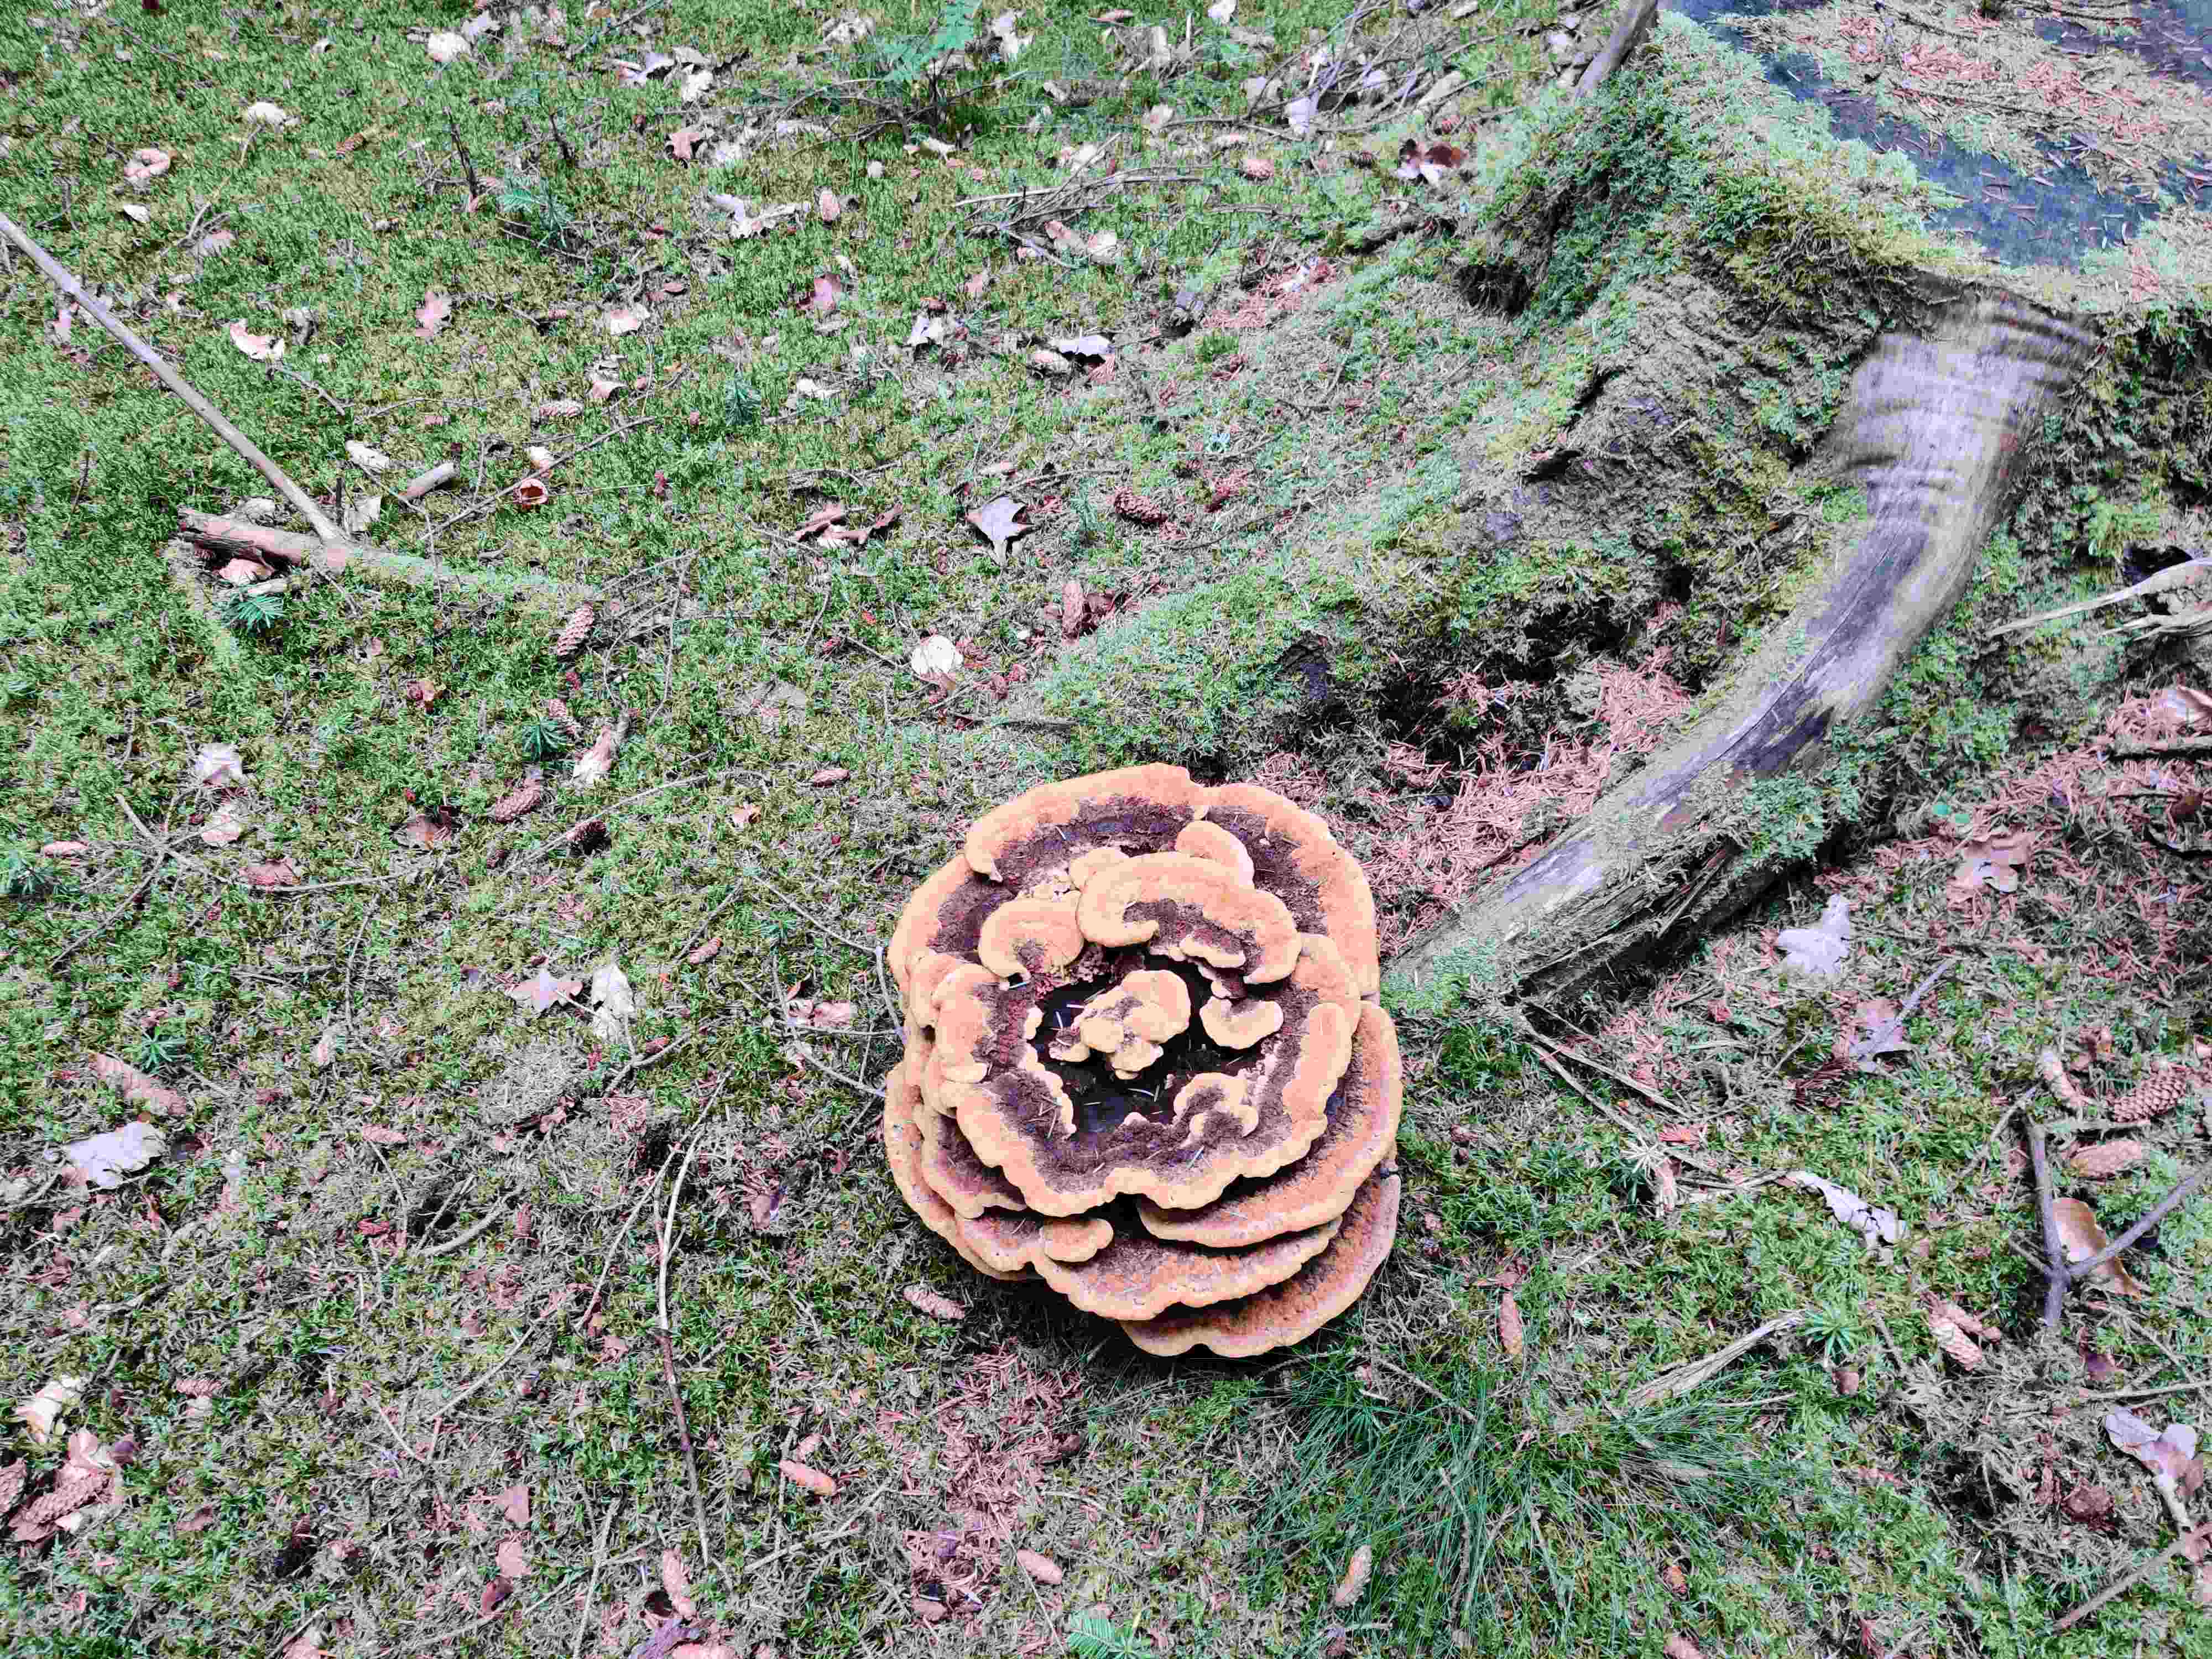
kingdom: Fungi
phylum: Basidiomycota
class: Agaricomycetes
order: Polyporales
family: Laetiporaceae
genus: Phaeolus
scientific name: Phaeolus schweinitzii
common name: brunporesvamp
